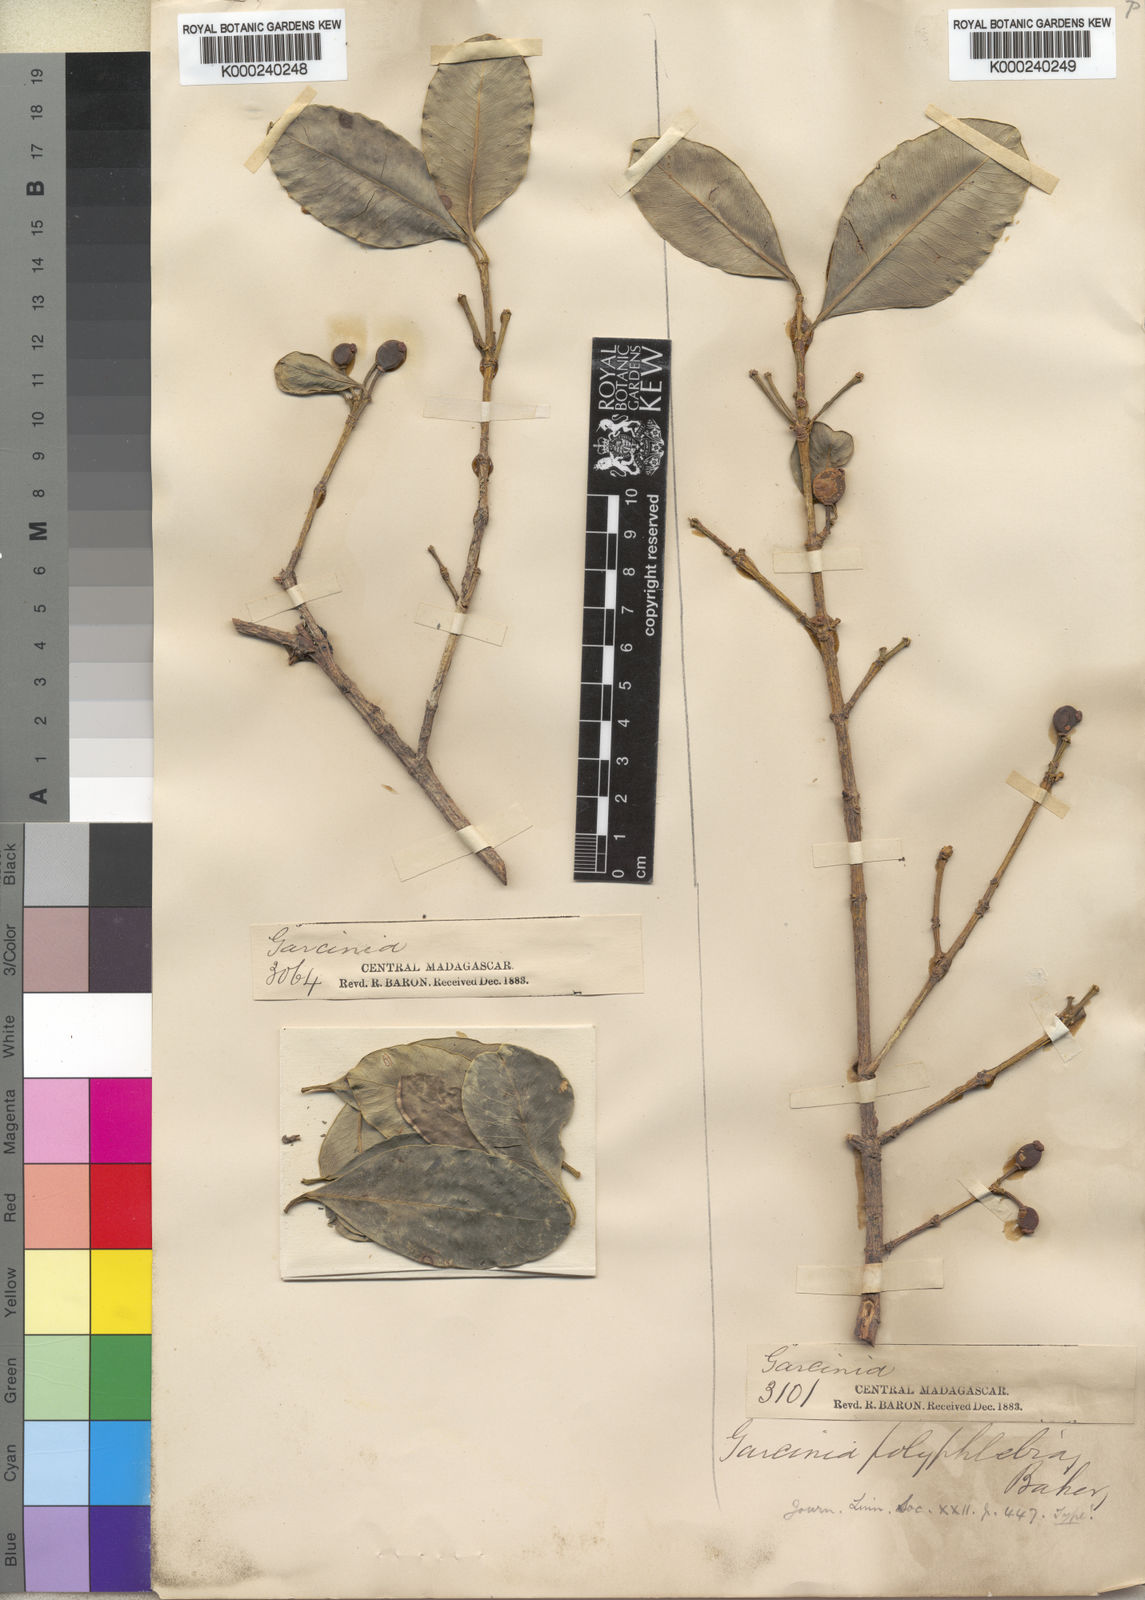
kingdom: Plantae
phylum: Tracheophyta
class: Magnoliopsida
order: Malpighiales
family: Clusiaceae
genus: Garcinia
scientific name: Garcinia chapelieri
